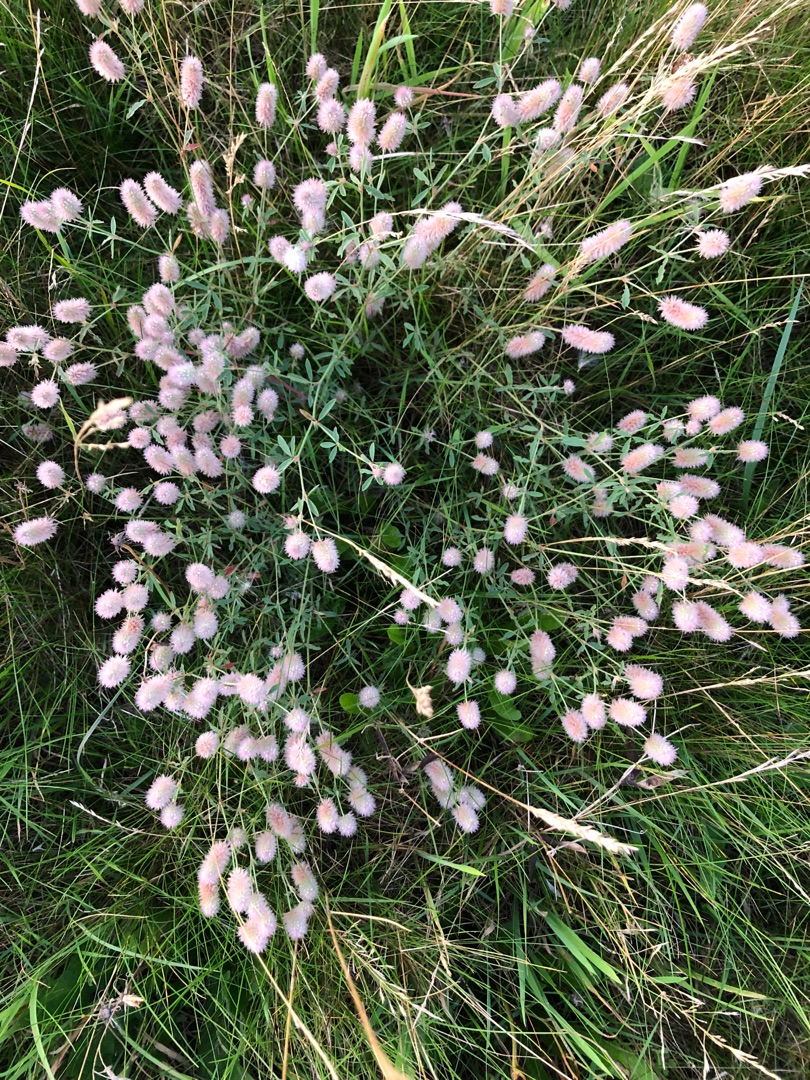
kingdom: Plantae
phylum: Tracheophyta
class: Magnoliopsida
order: Fabales
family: Fabaceae
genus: Trifolium
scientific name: Trifolium arvense
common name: Hare-kløver
